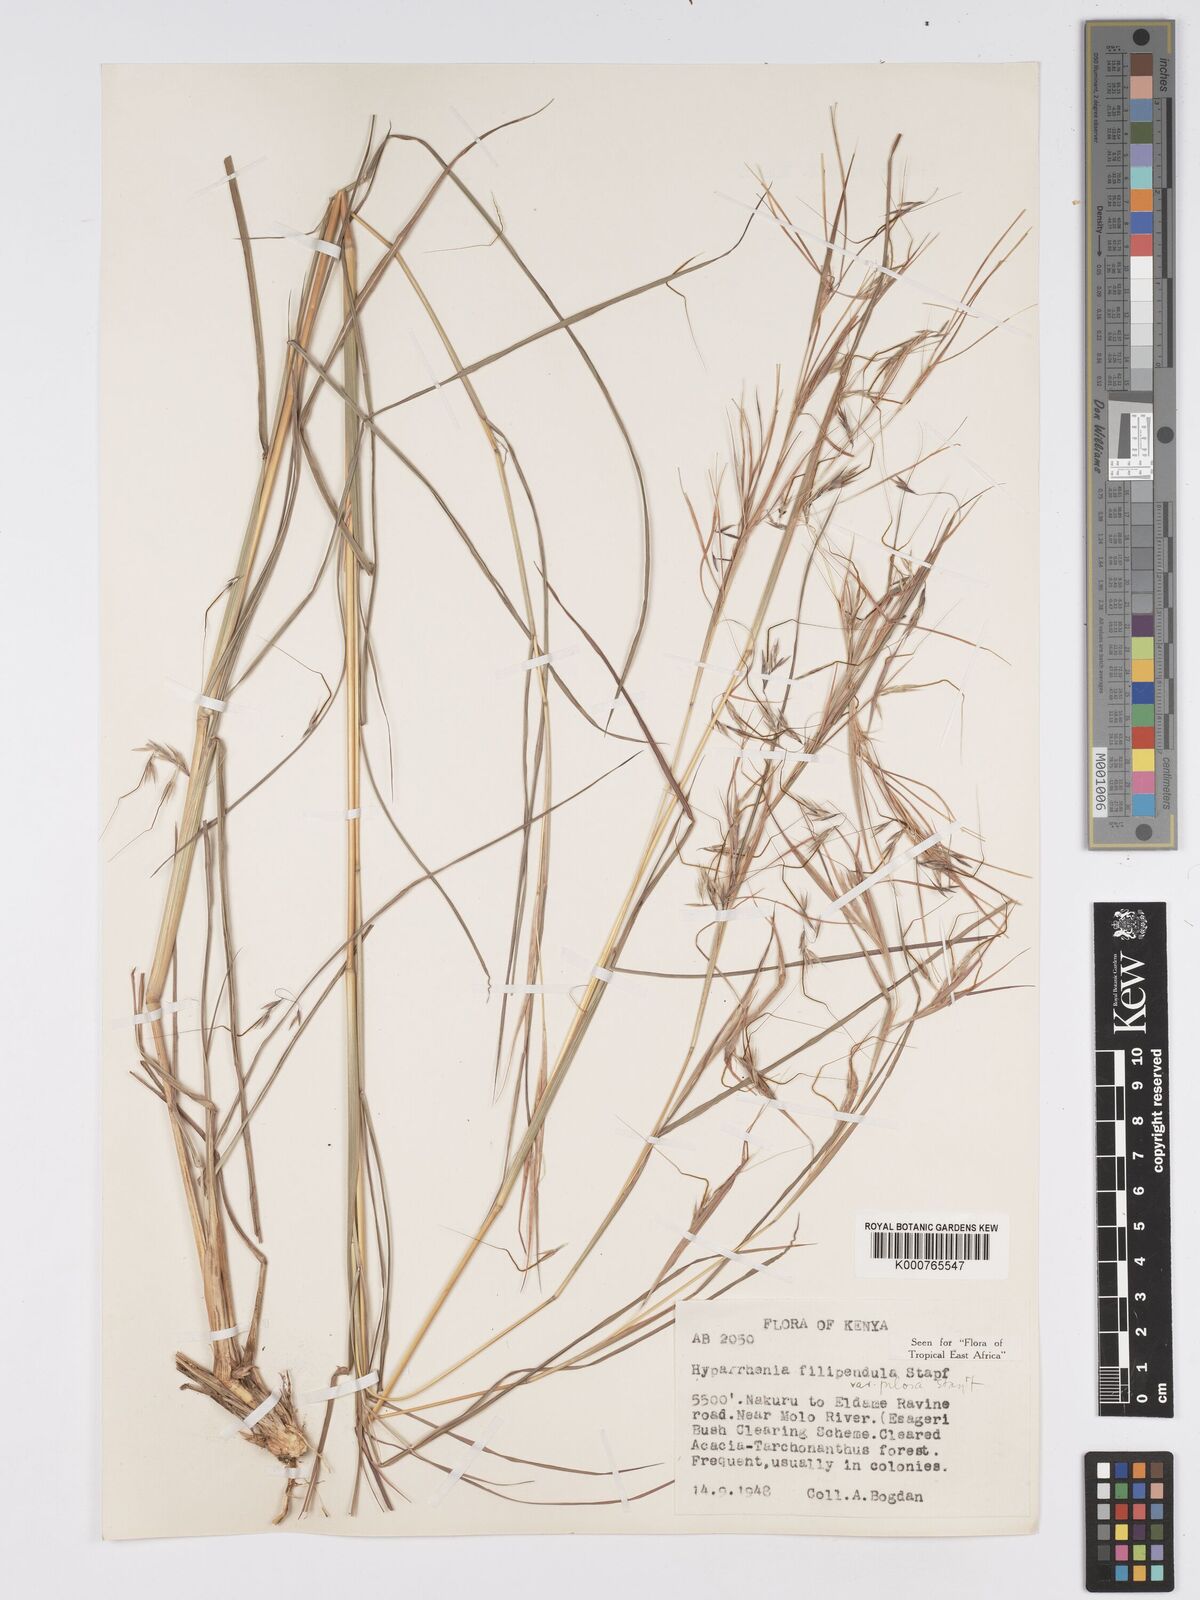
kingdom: Plantae
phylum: Tracheophyta
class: Liliopsida
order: Poales
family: Poaceae
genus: Hyparrhenia
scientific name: Hyparrhenia filipendula
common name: Tambookie grass
